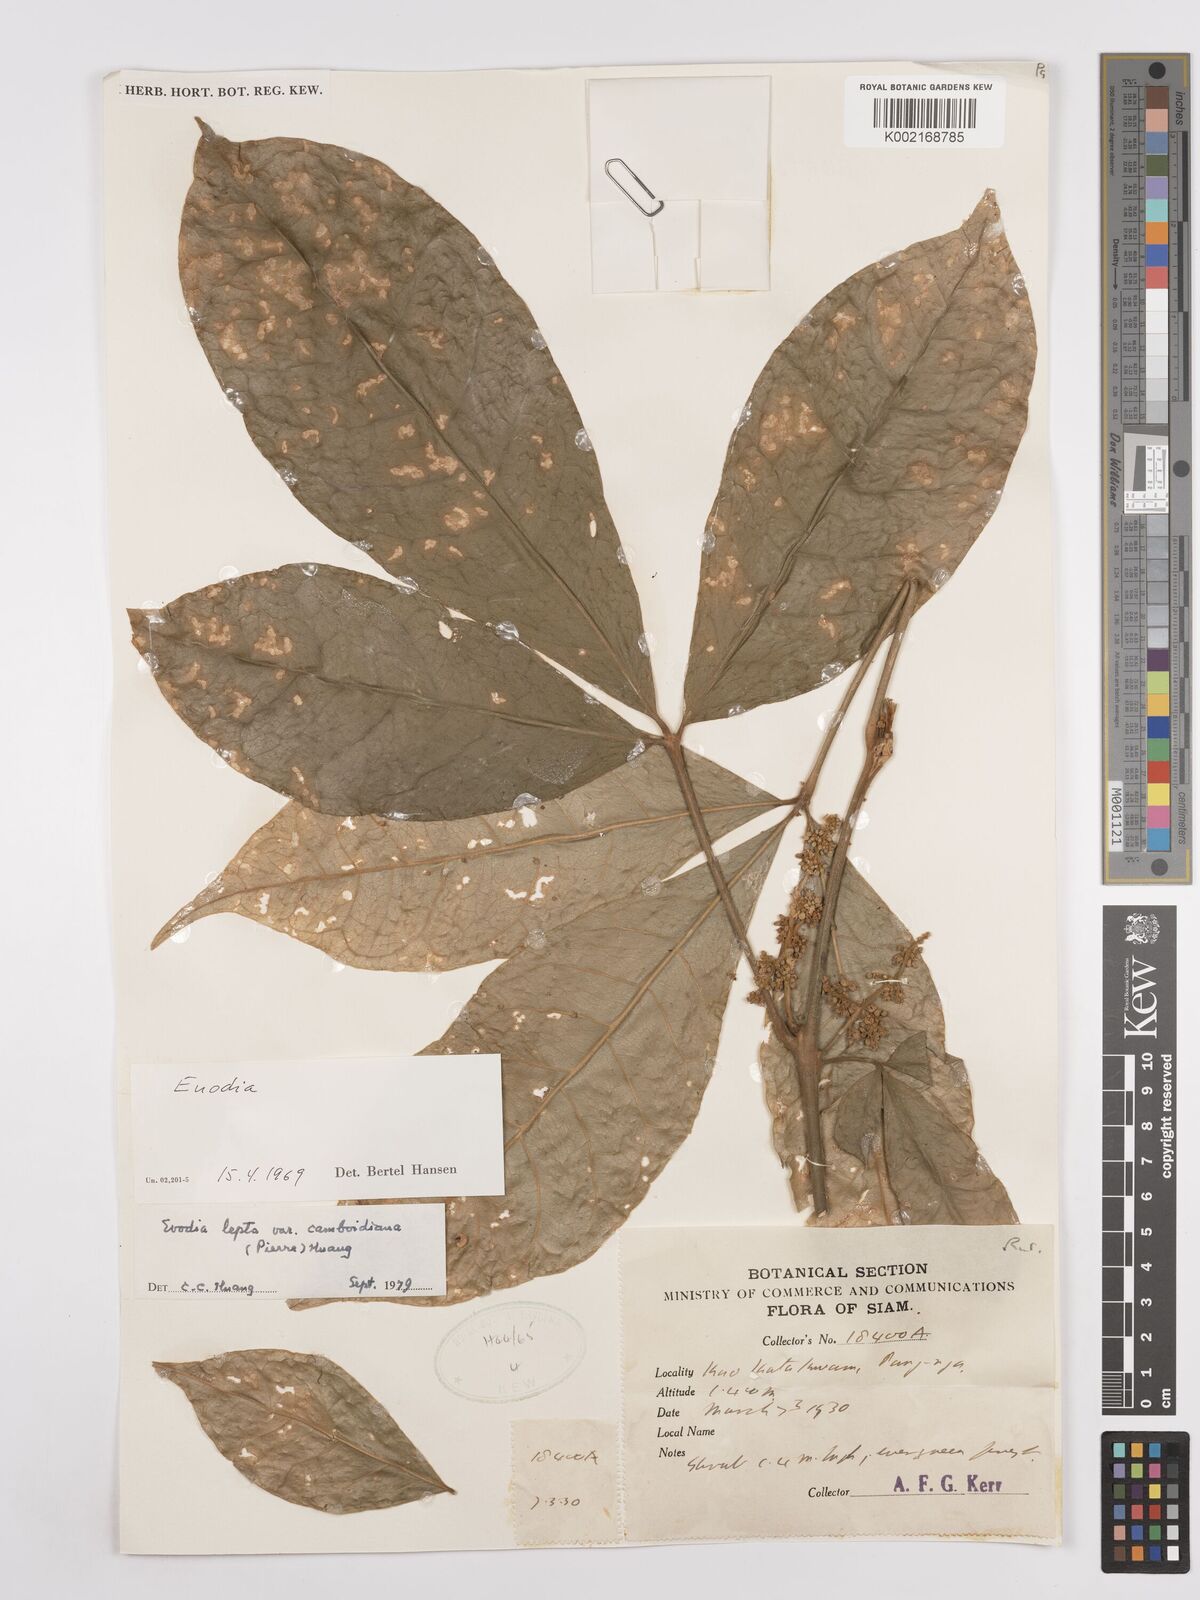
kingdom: Plantae
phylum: Tracheophyta
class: Magnoliopsida
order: Sapindales
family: Rutaceae
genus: Euodia
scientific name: Euodia
